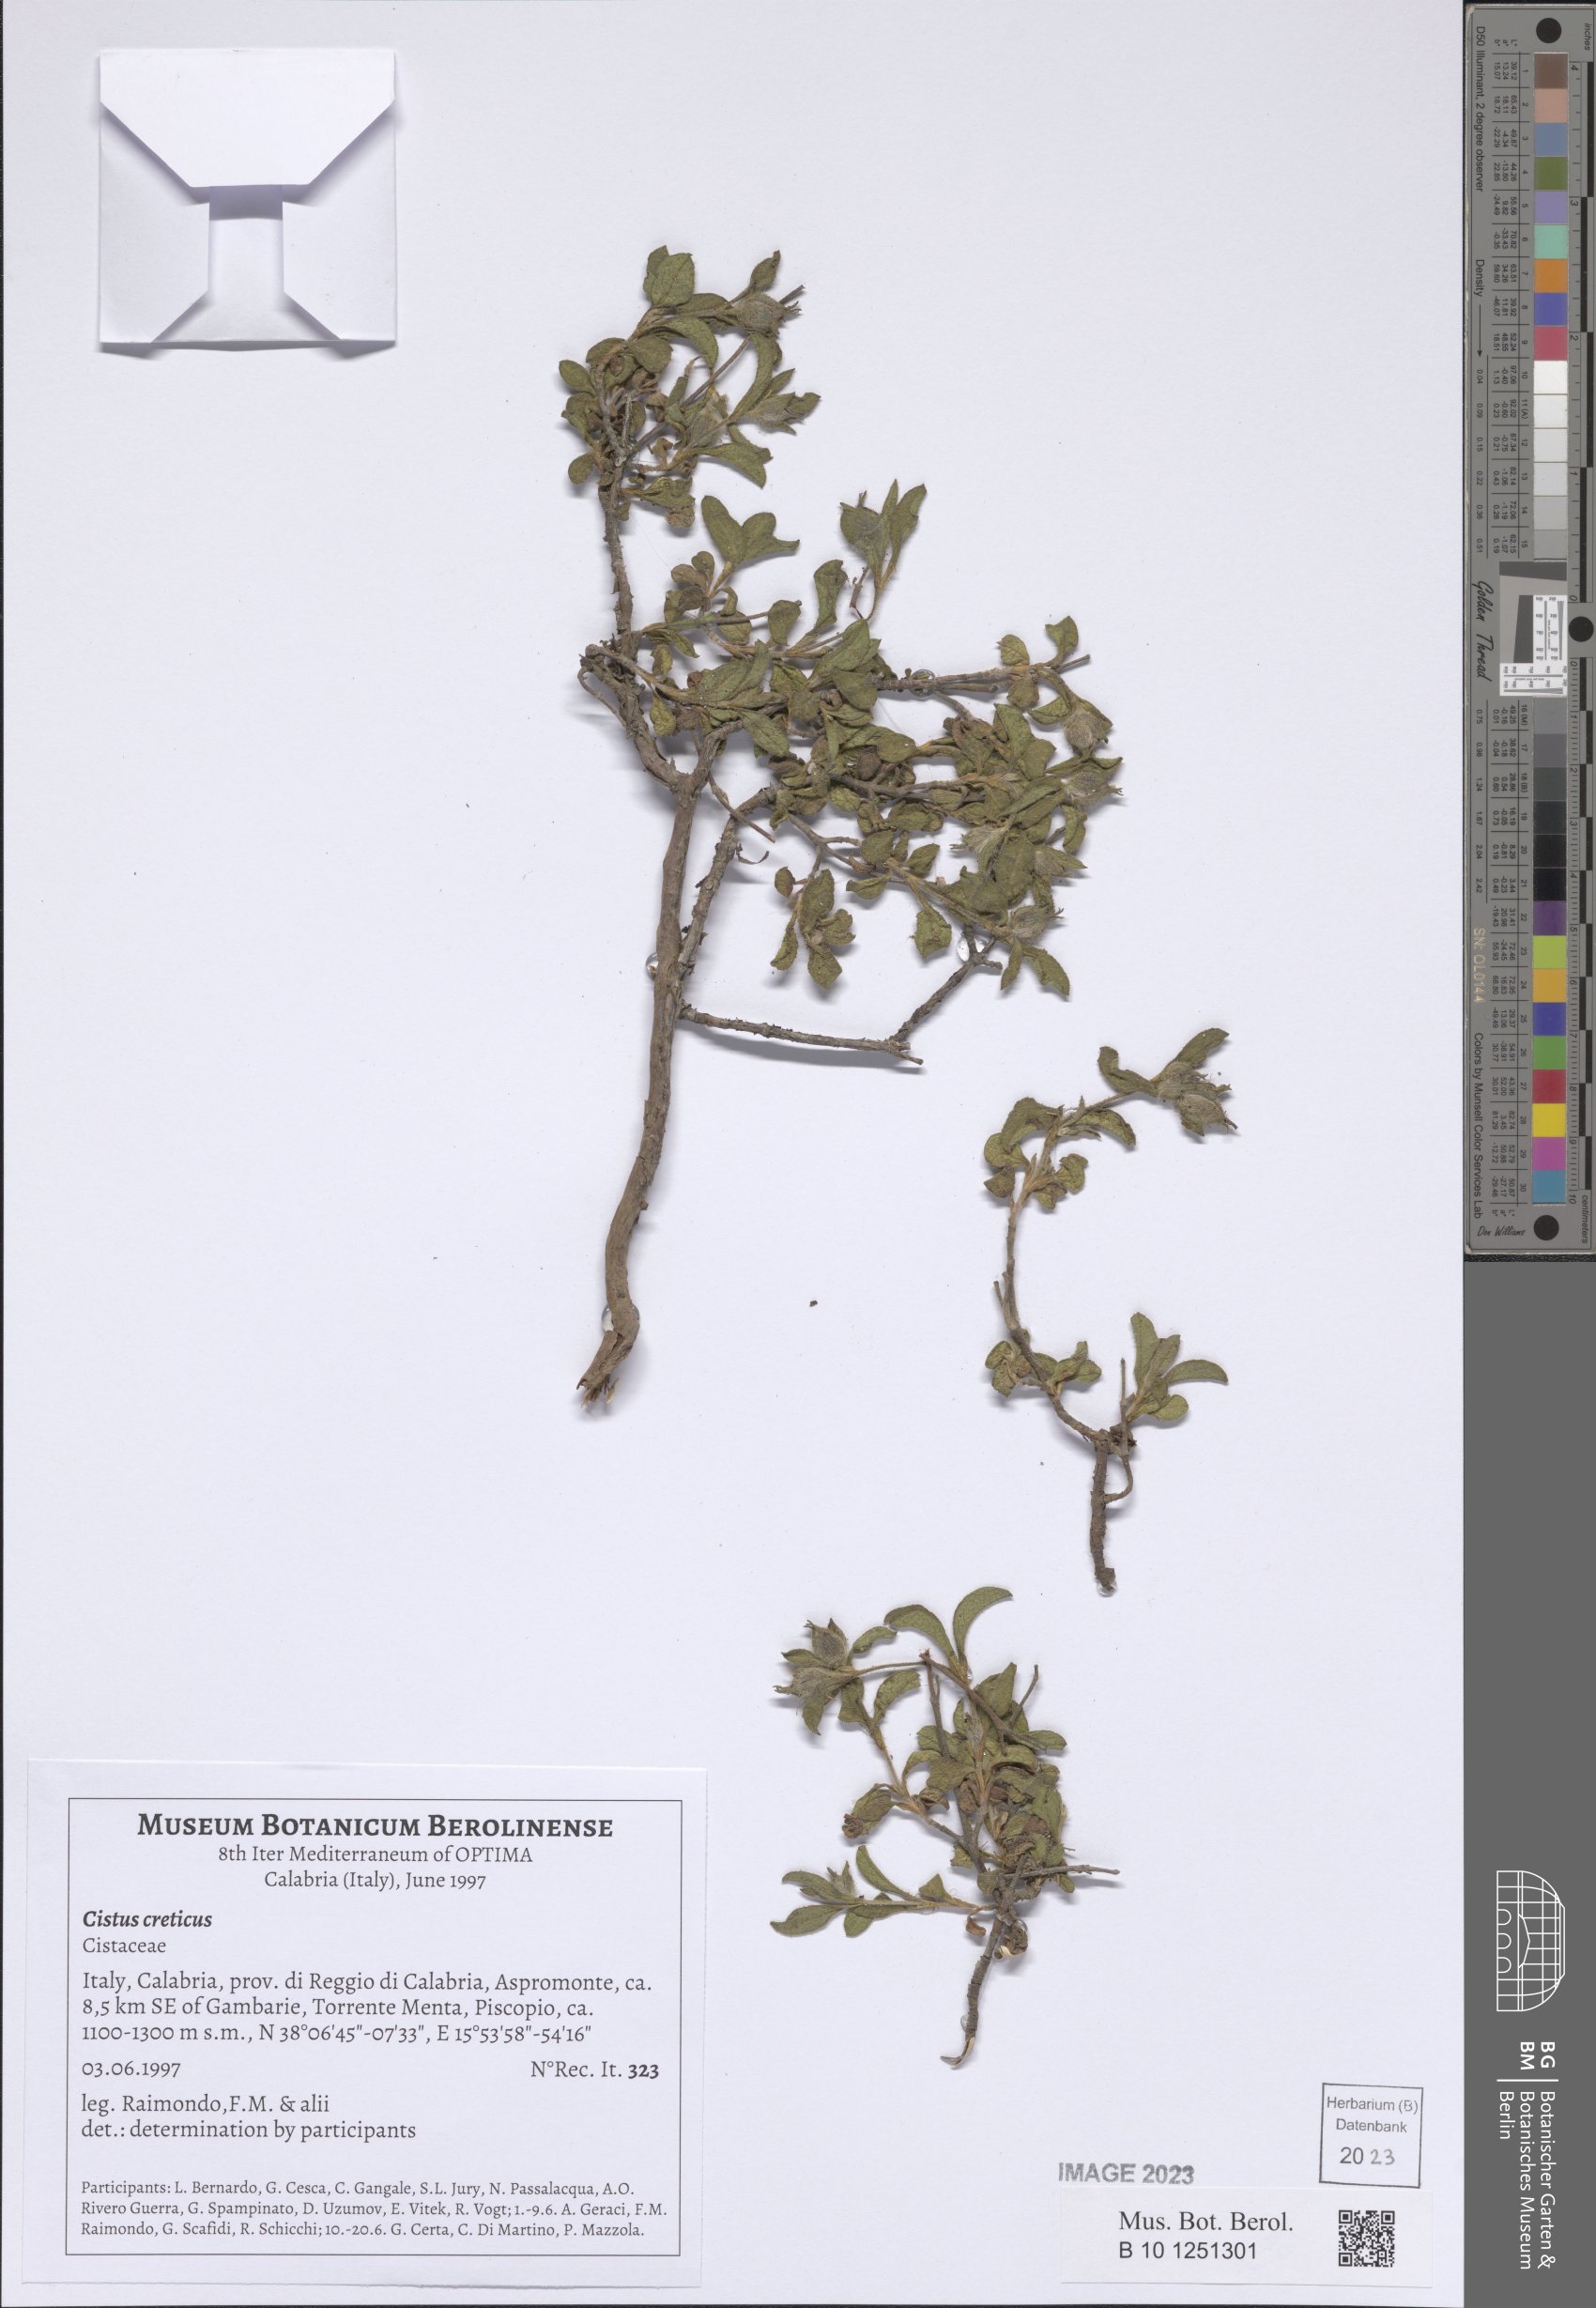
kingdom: Plantae
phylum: Tracheophyta
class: Magnoliopsida
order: Malvales
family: Cistaceae
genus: Cistus
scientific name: Cistus creticus
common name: Cretan rockrose
